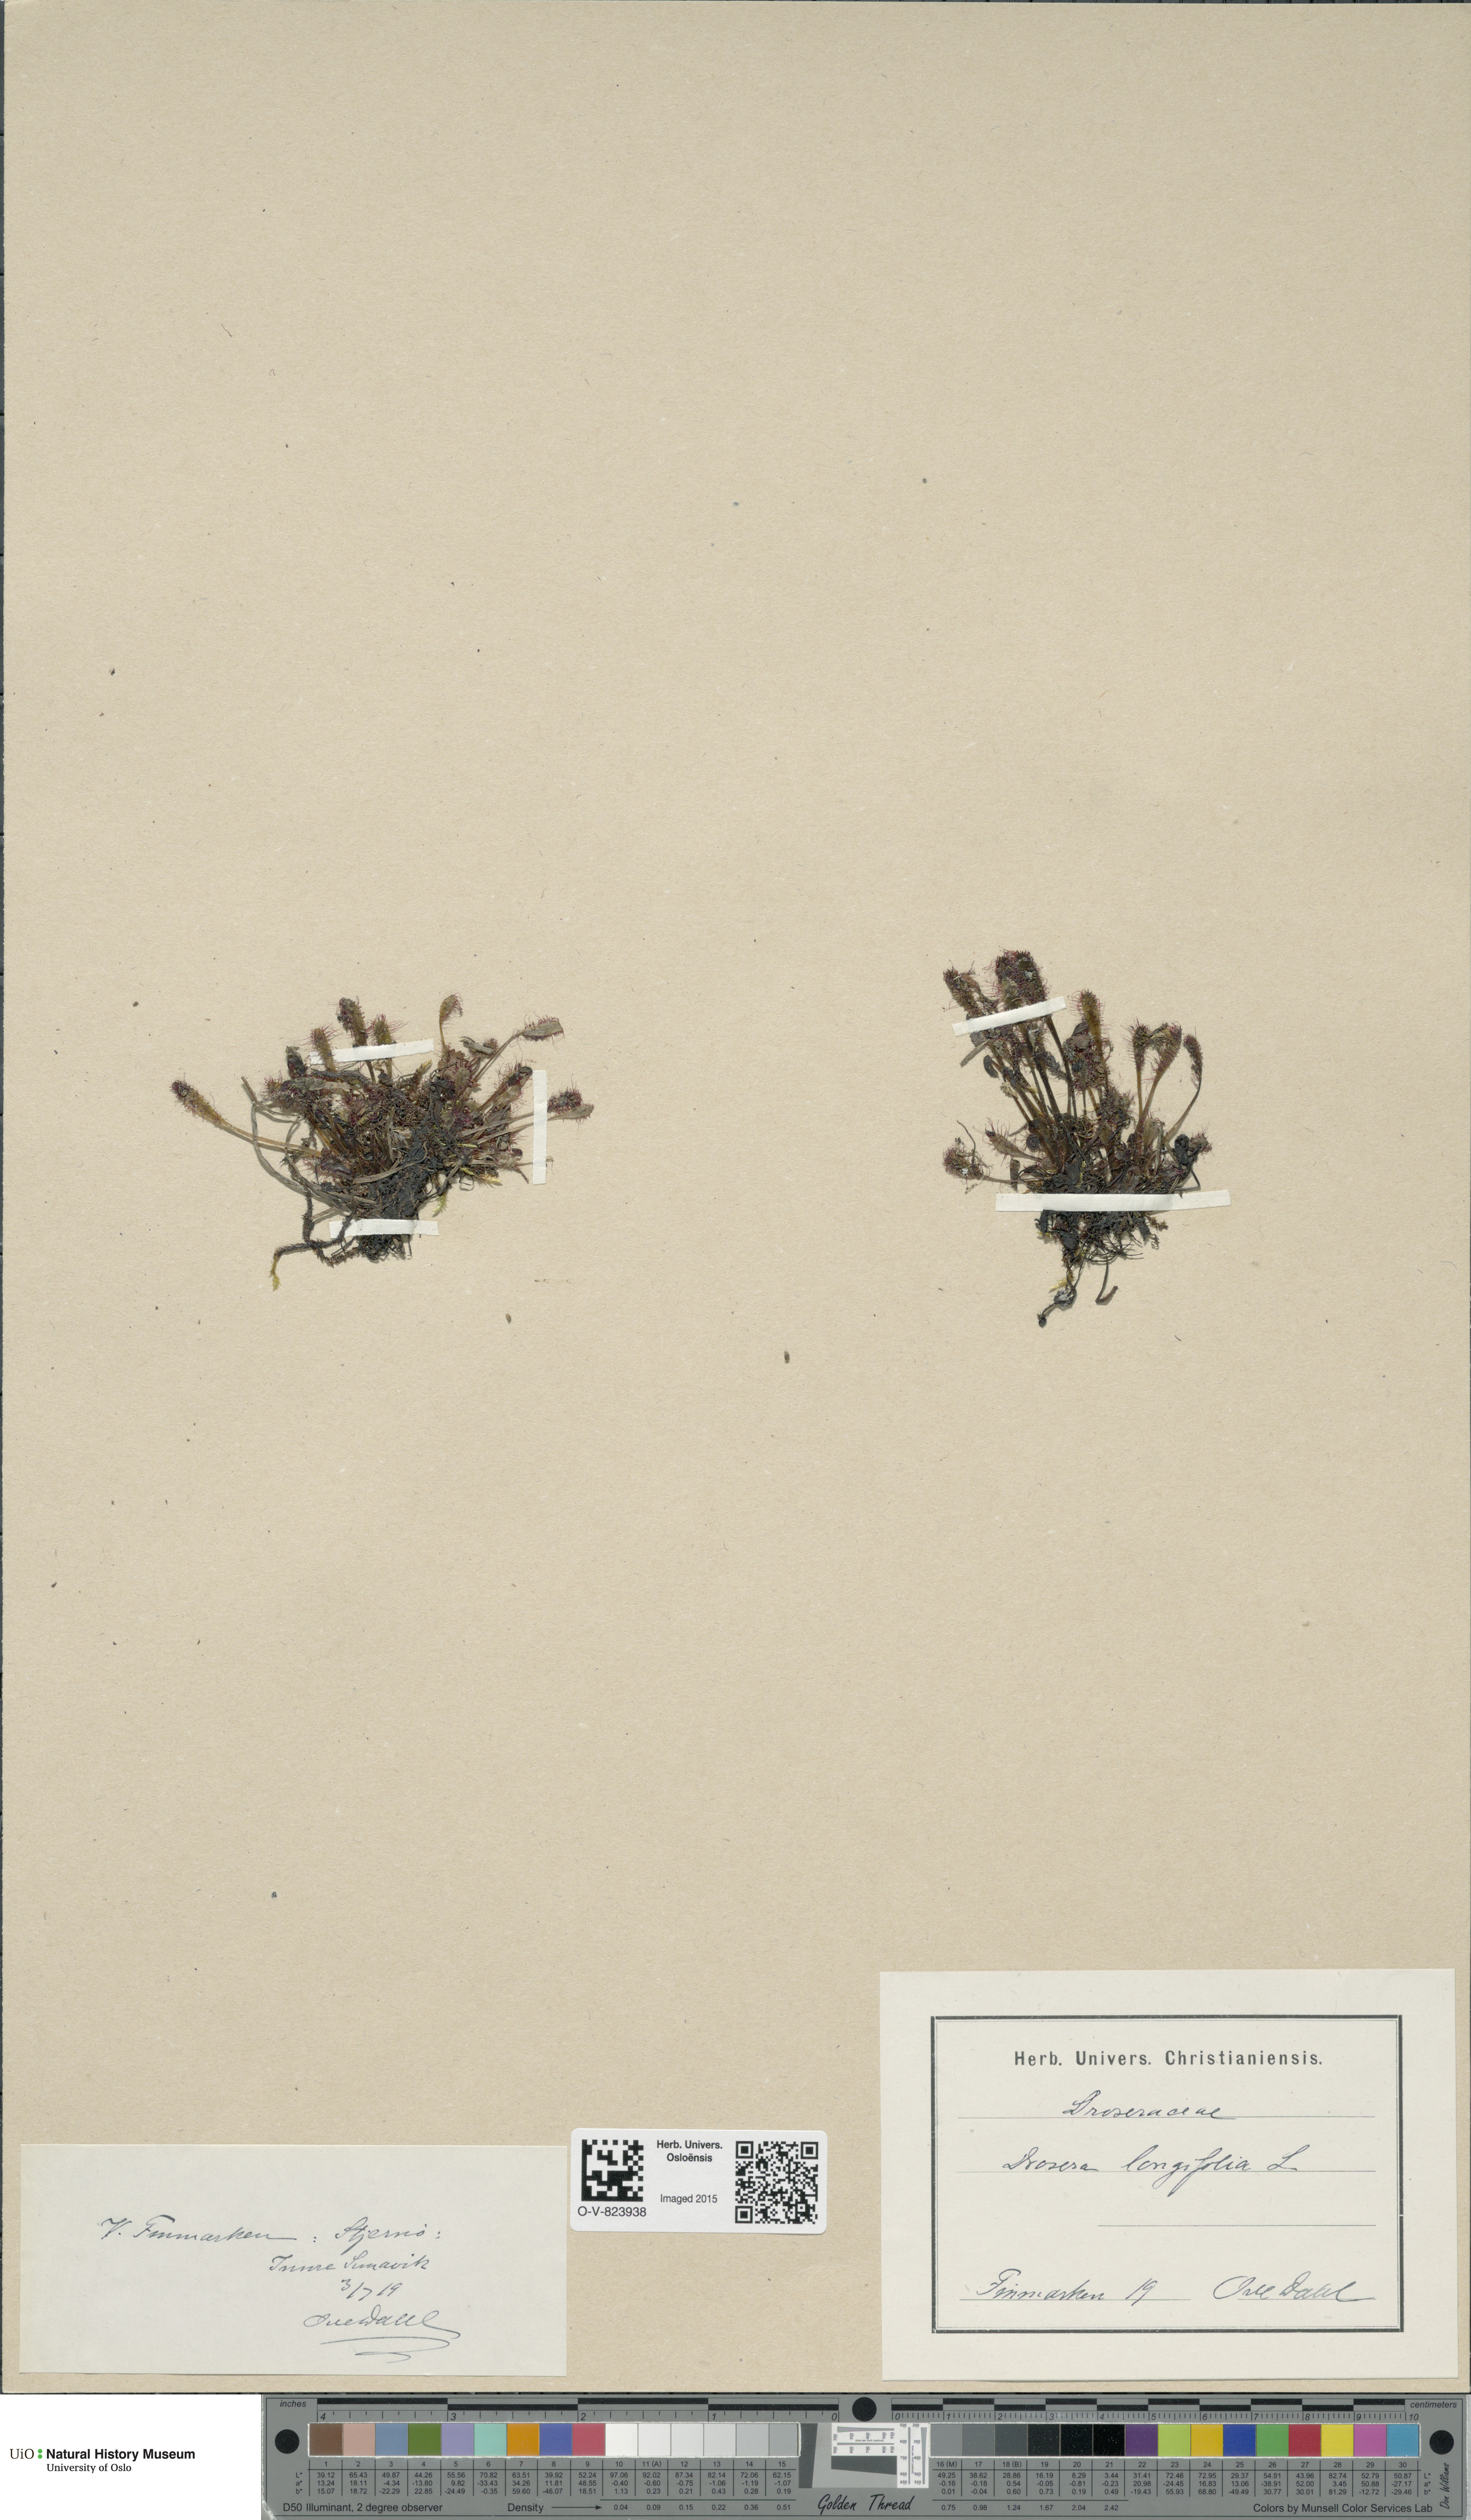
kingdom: Plantae
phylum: Tracheophyta
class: Magnoliopsida
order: Caryophyllales
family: Droseraceae
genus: Drosera
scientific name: Drosera anglica
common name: Great sundew
